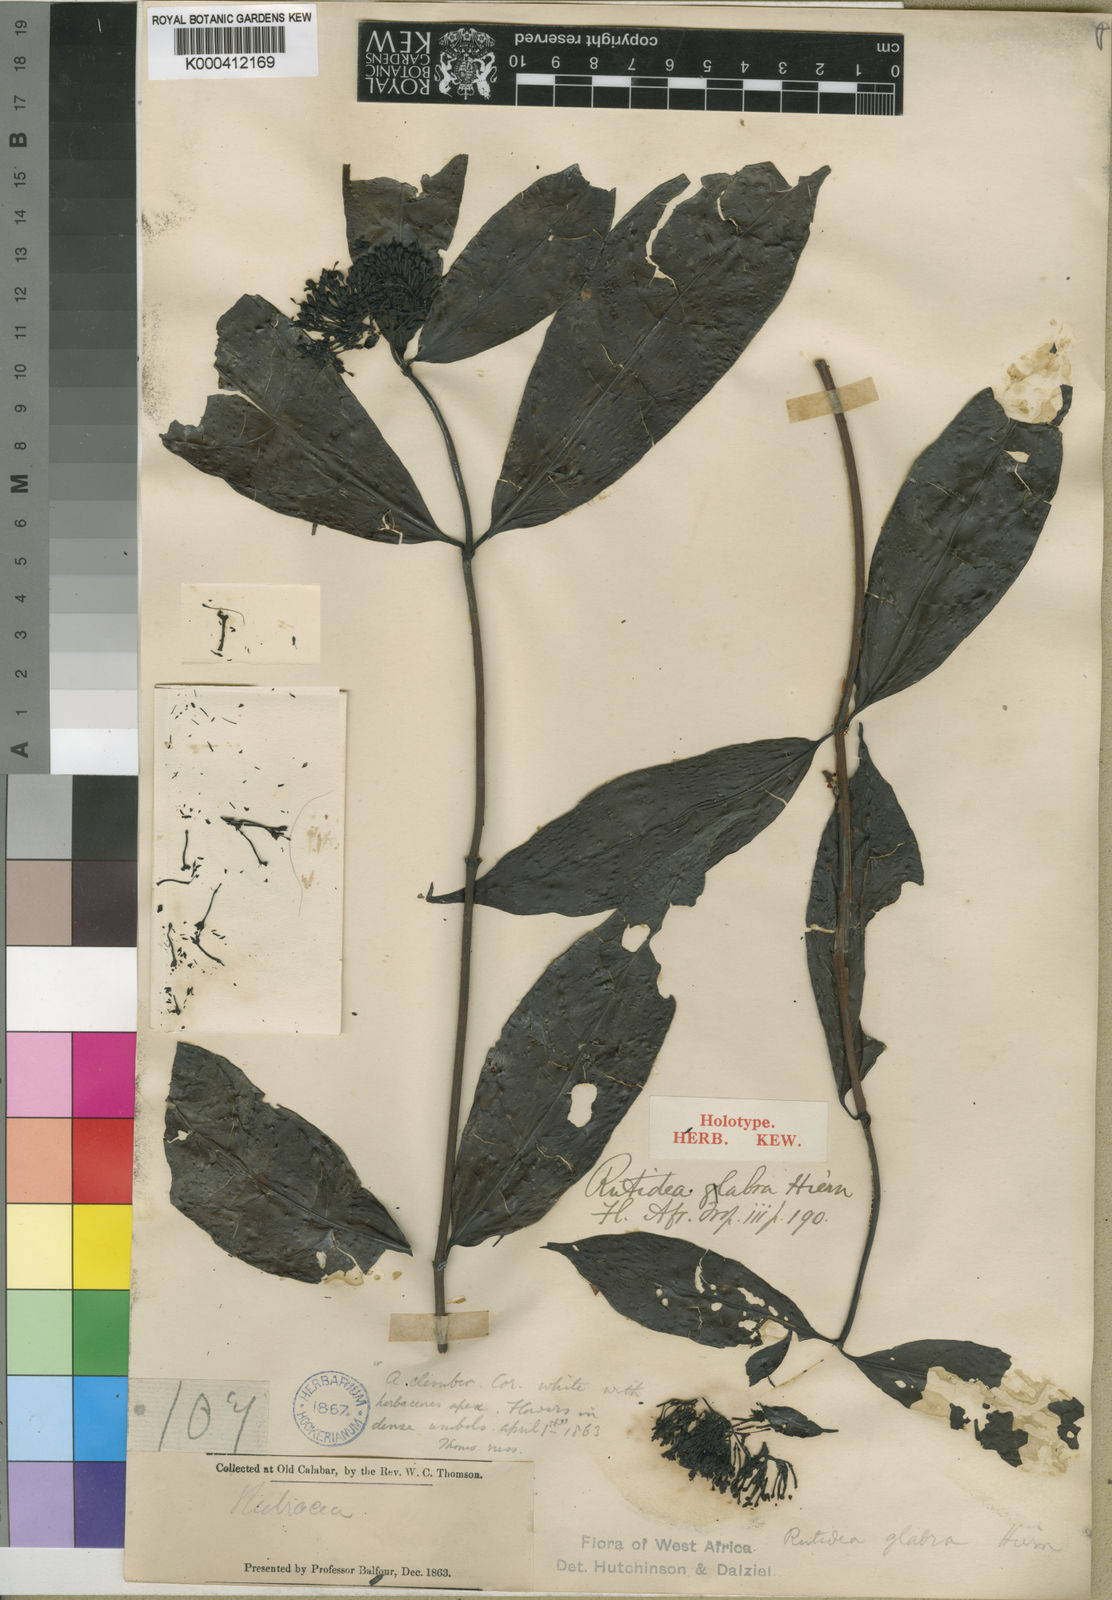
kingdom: Plantae
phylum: Tracheophyta
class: Magnoliopsida
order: Gentianales
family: Rubiaceae
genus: Rutidea
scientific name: Rutidea glabra
